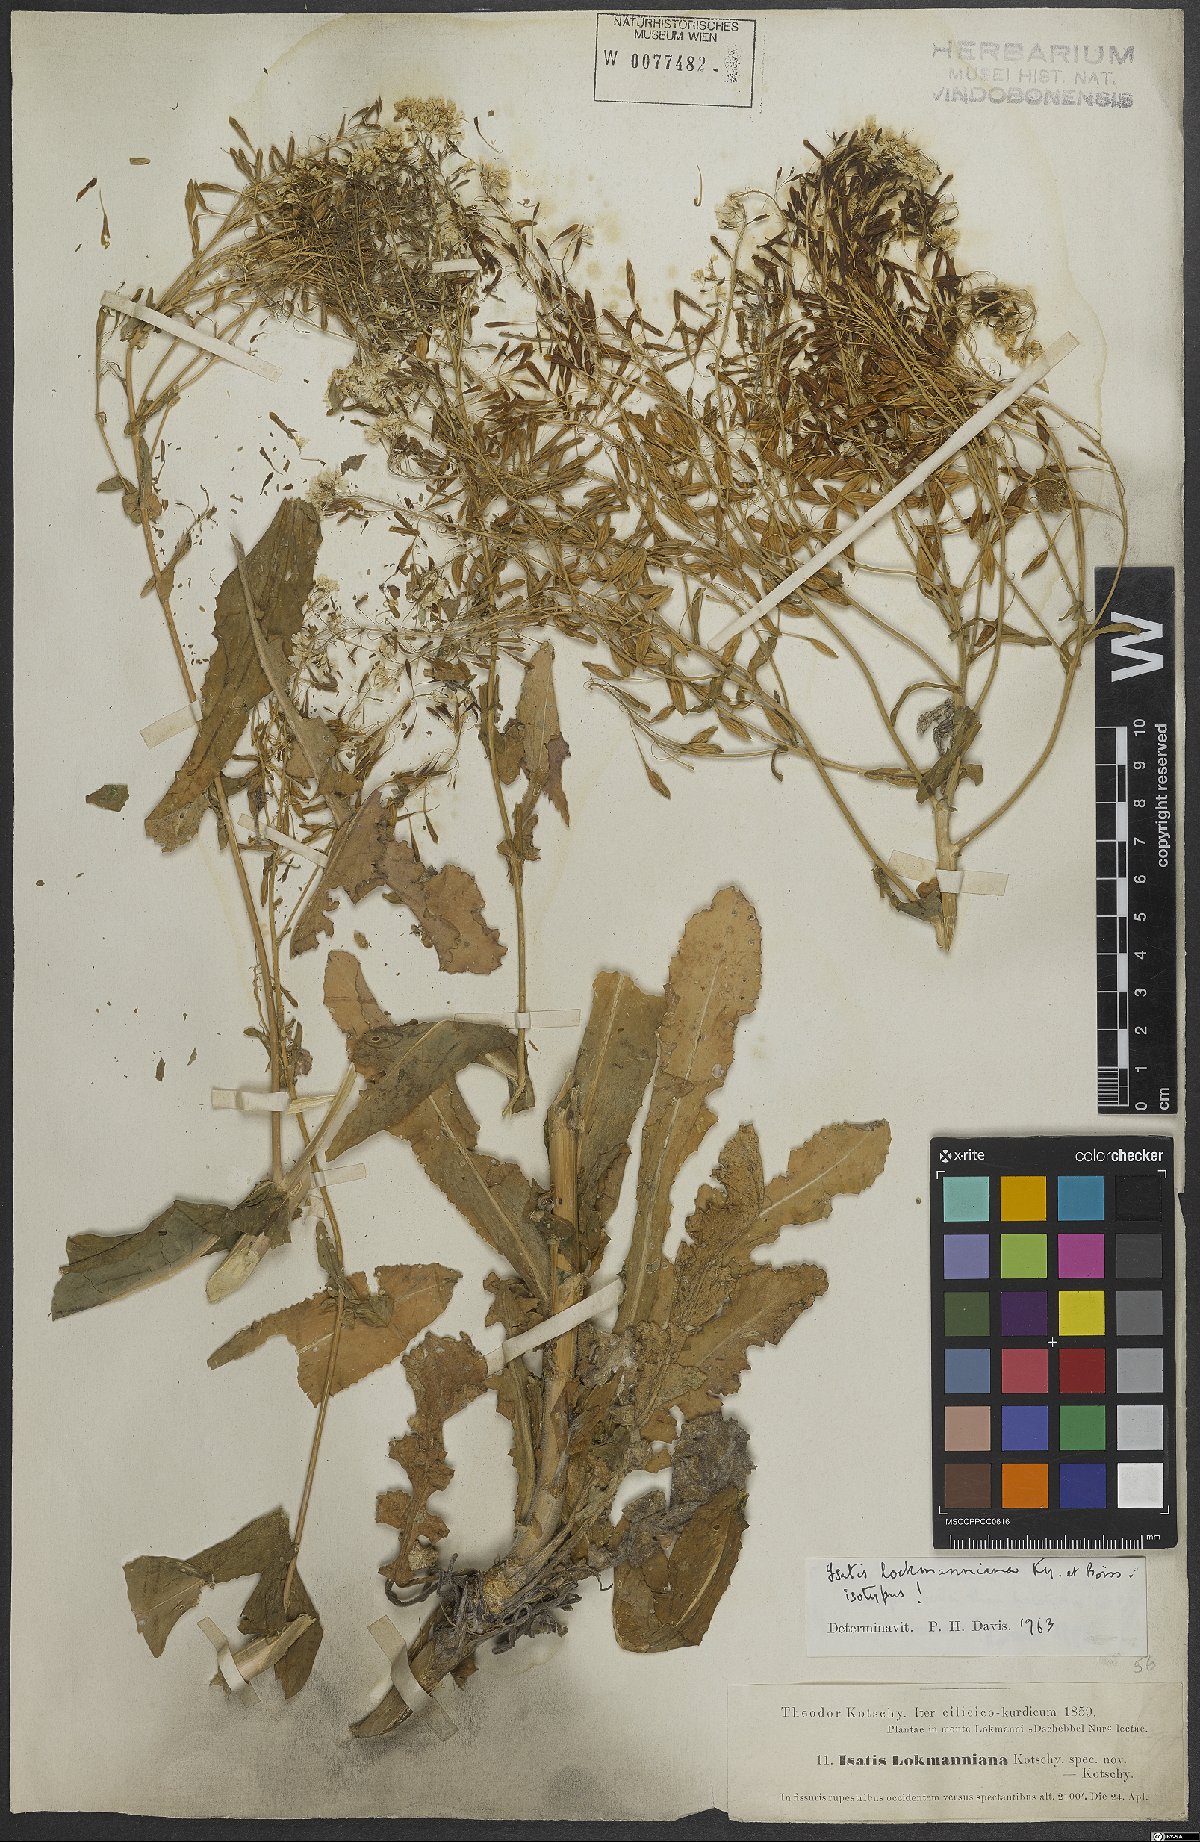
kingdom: Plantae
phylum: Tracheophyta
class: Magnoliopsida
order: Brassicales
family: Brassicaceae
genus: Isatis
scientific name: Isatis lockmanniana
